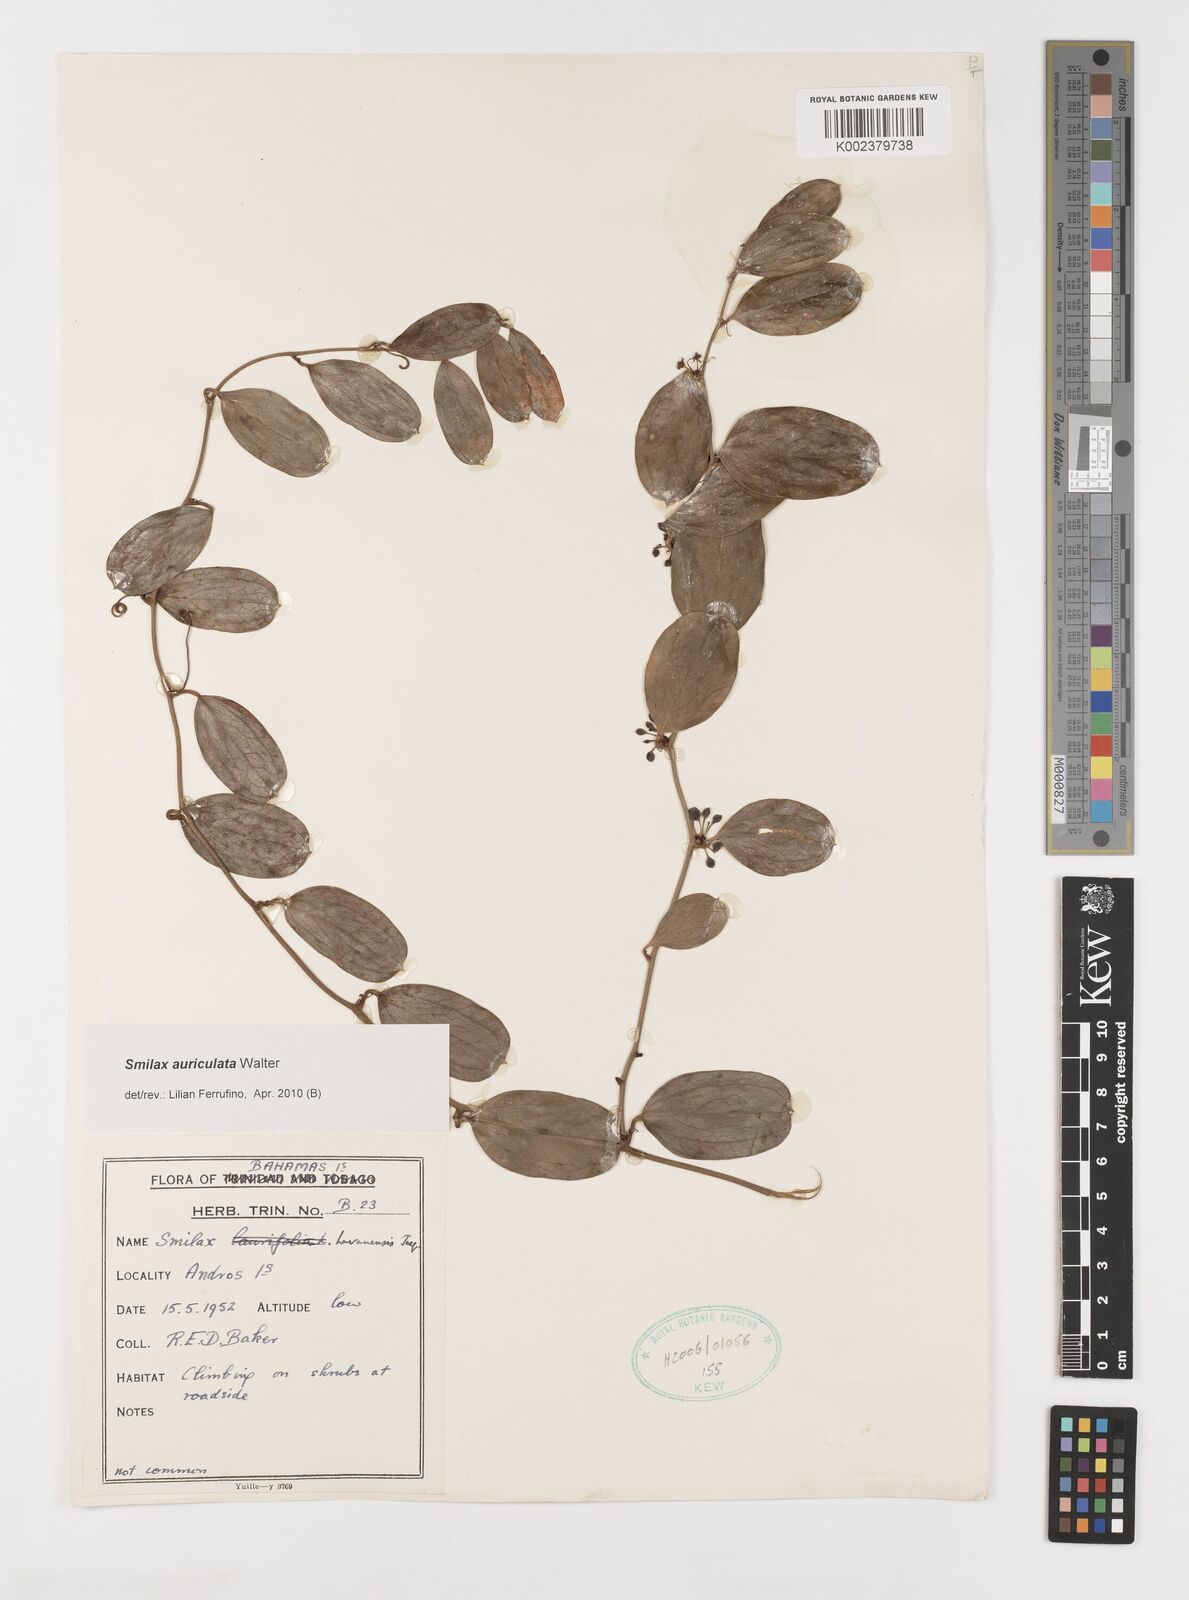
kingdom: Plantae
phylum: Tracheophyta
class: Liliopsida
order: Liliales
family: Smilacaceae
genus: Smilax
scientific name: Smilax auriculata
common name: Wild bamboo
